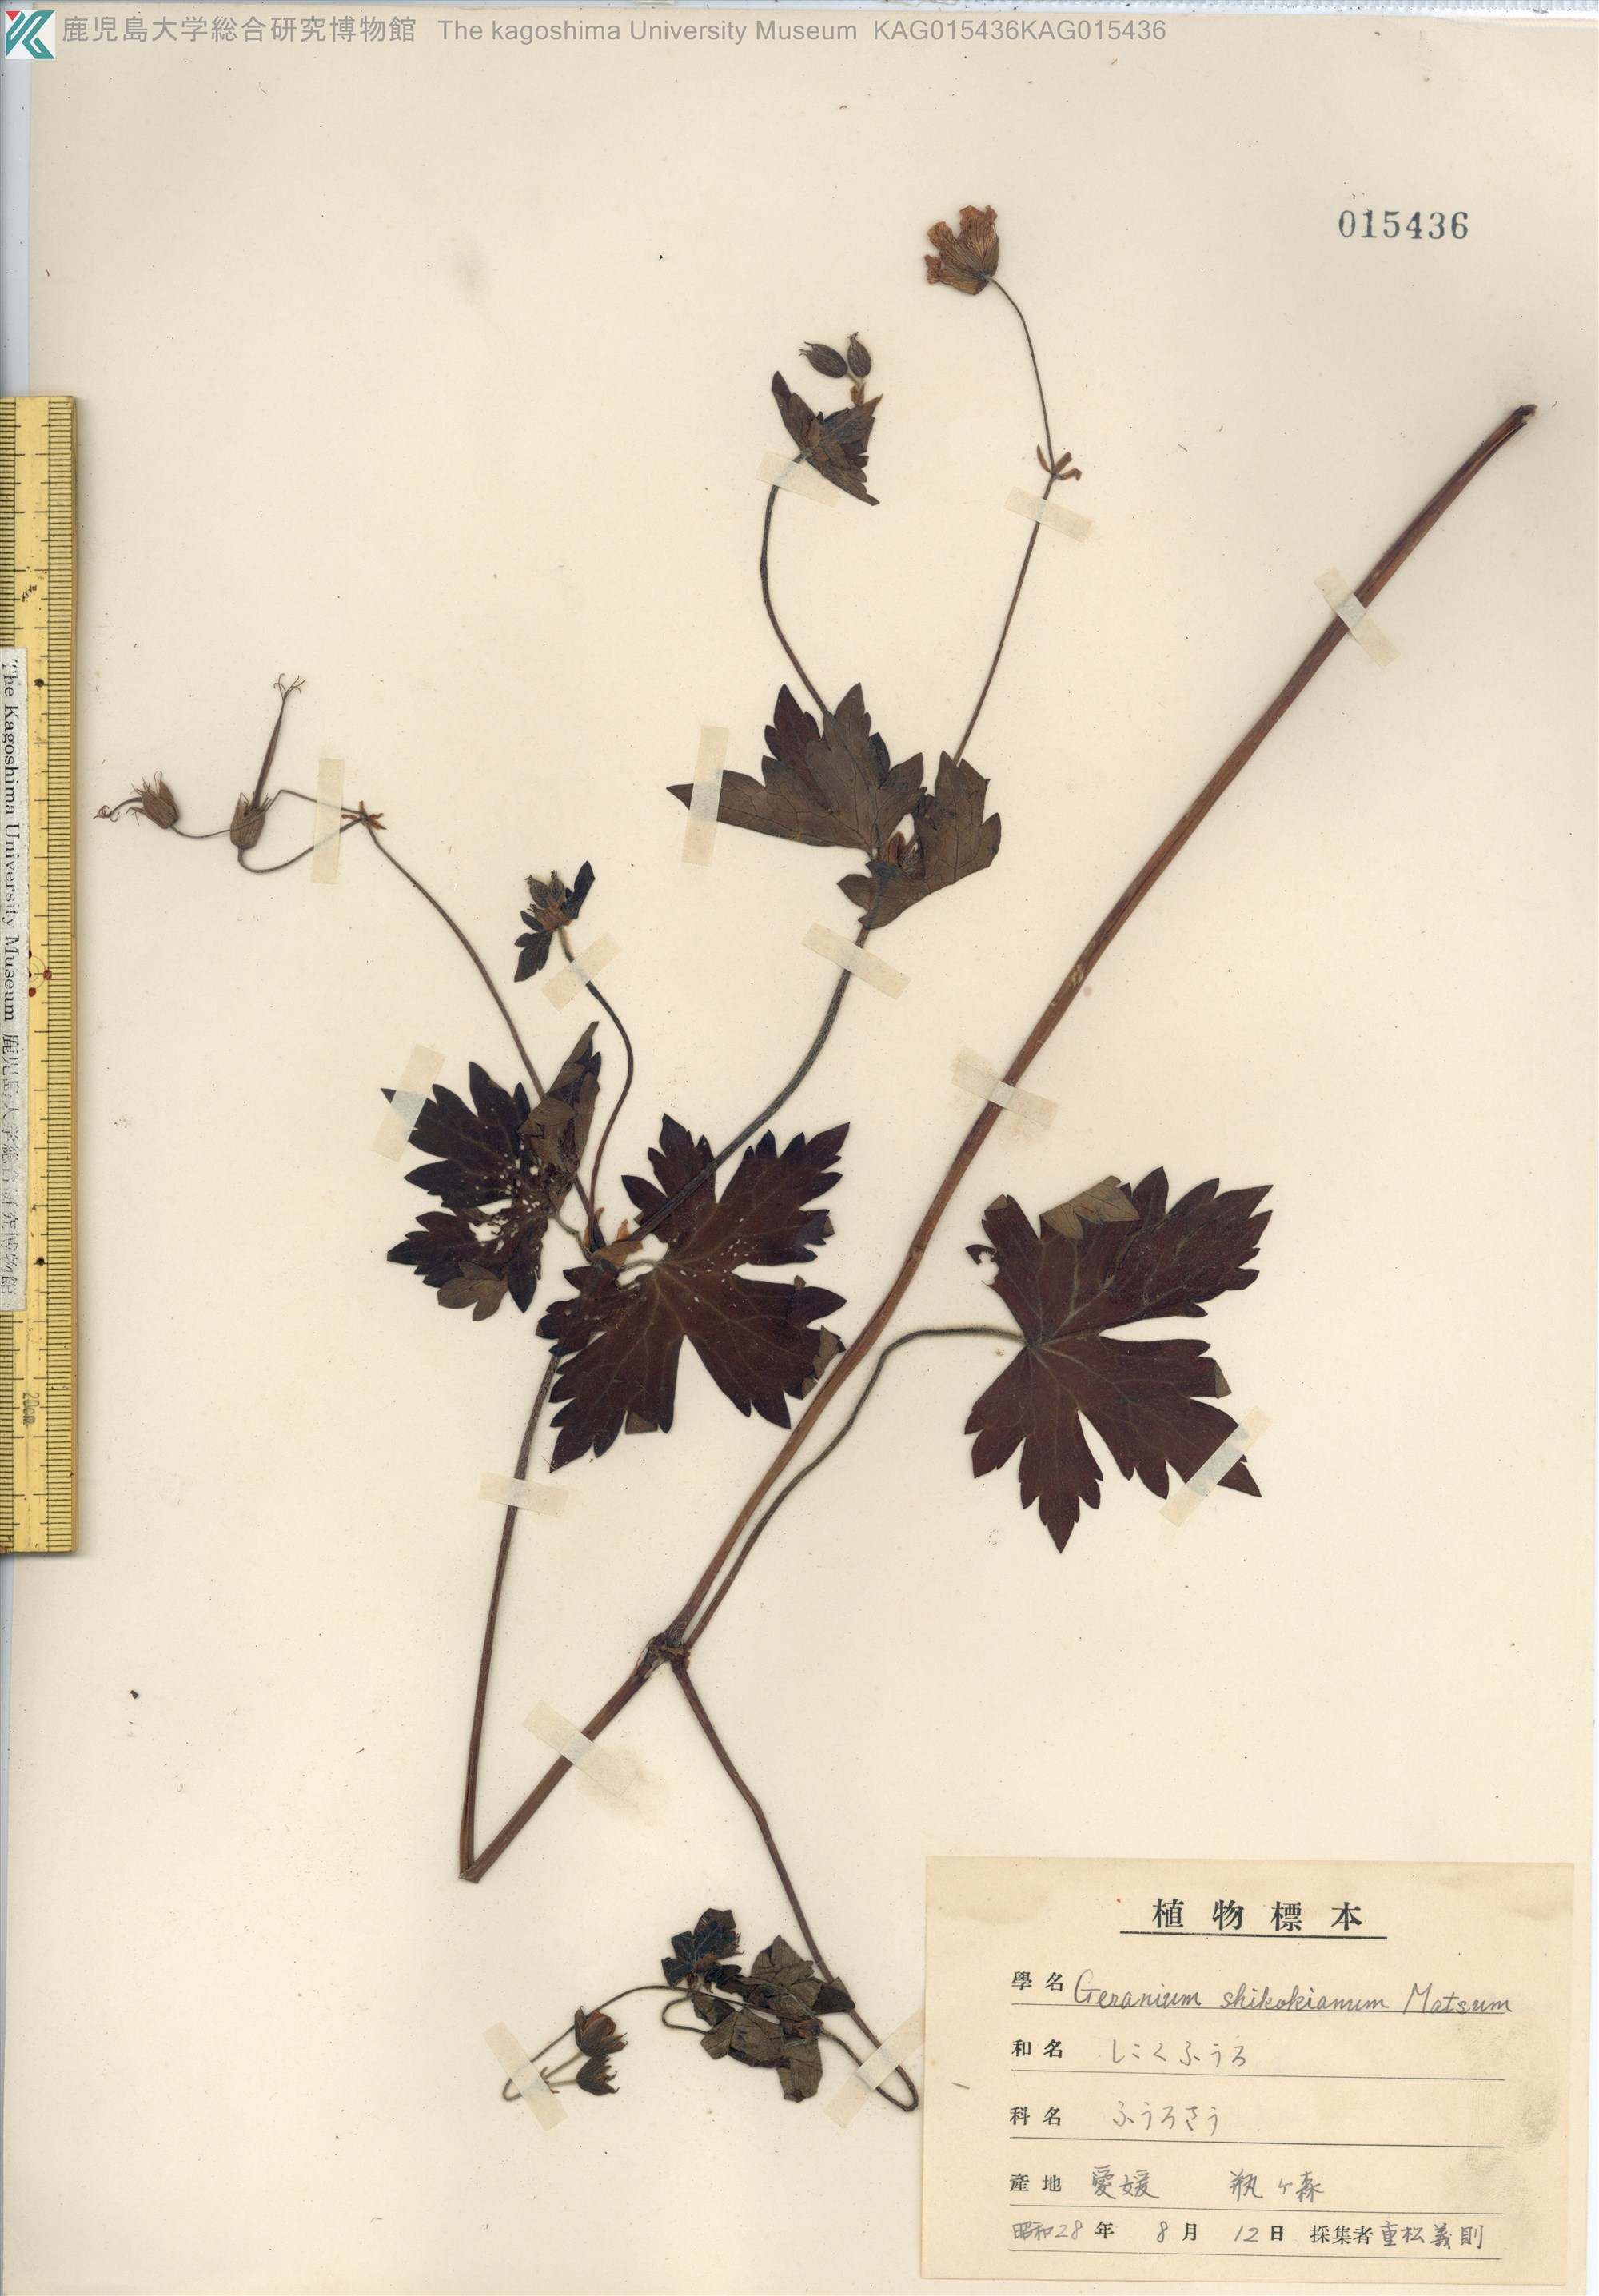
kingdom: Plantae
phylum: Tracheophyta
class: Magnoliopsida
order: Geraniales
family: Geraniaceae
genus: Geranium
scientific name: Geranium shikokianum
